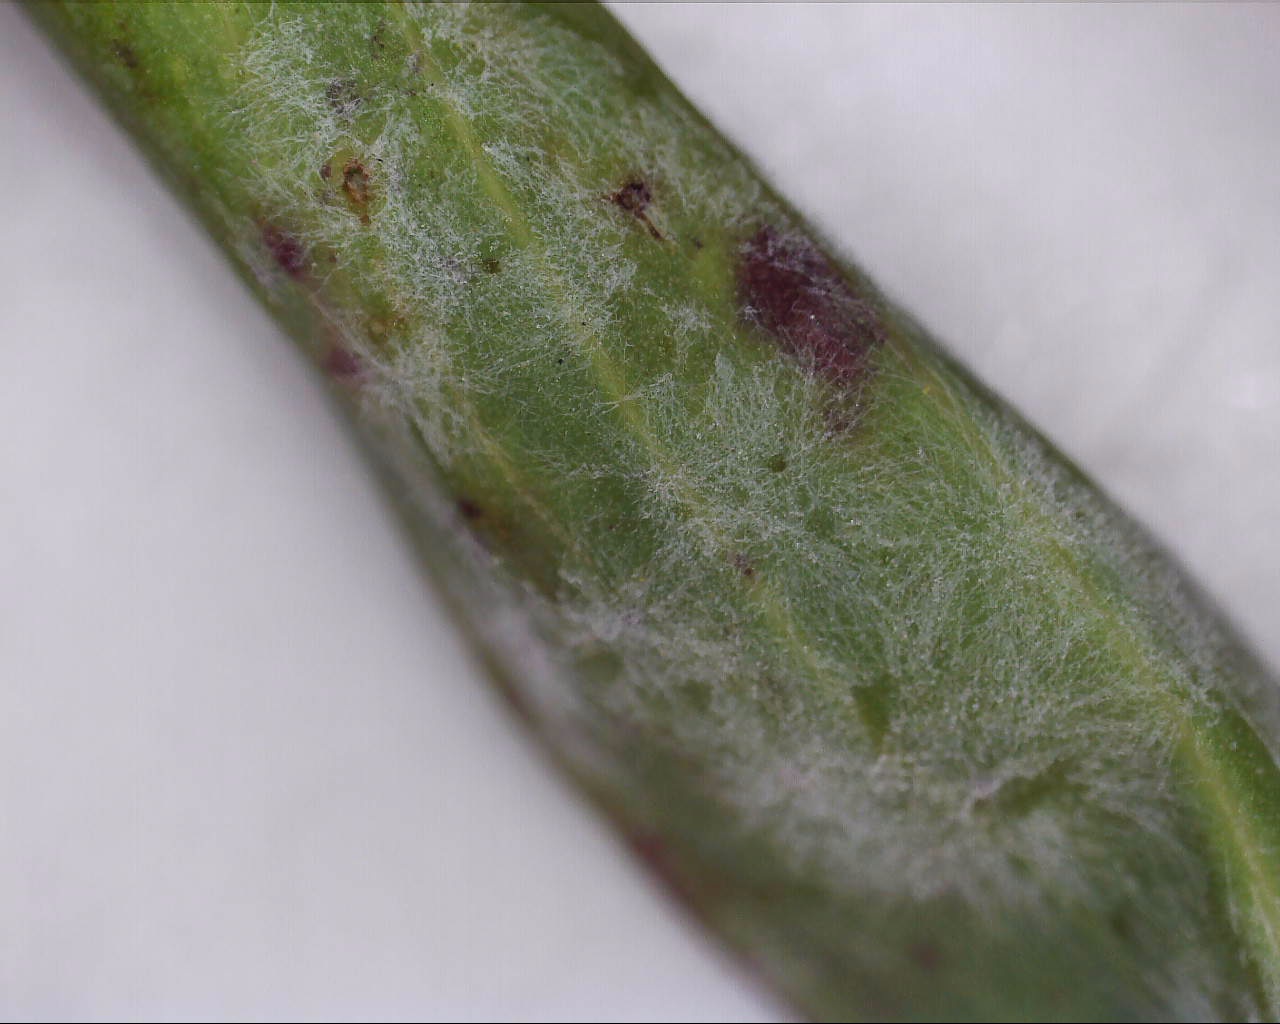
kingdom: Fungi
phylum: Ascomycota
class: Leotiomycetes
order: Helotiales
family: Erysiphaceae
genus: Golovinomyces
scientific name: Golovinomyces cichoracearum
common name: kurvblomst-meldug
